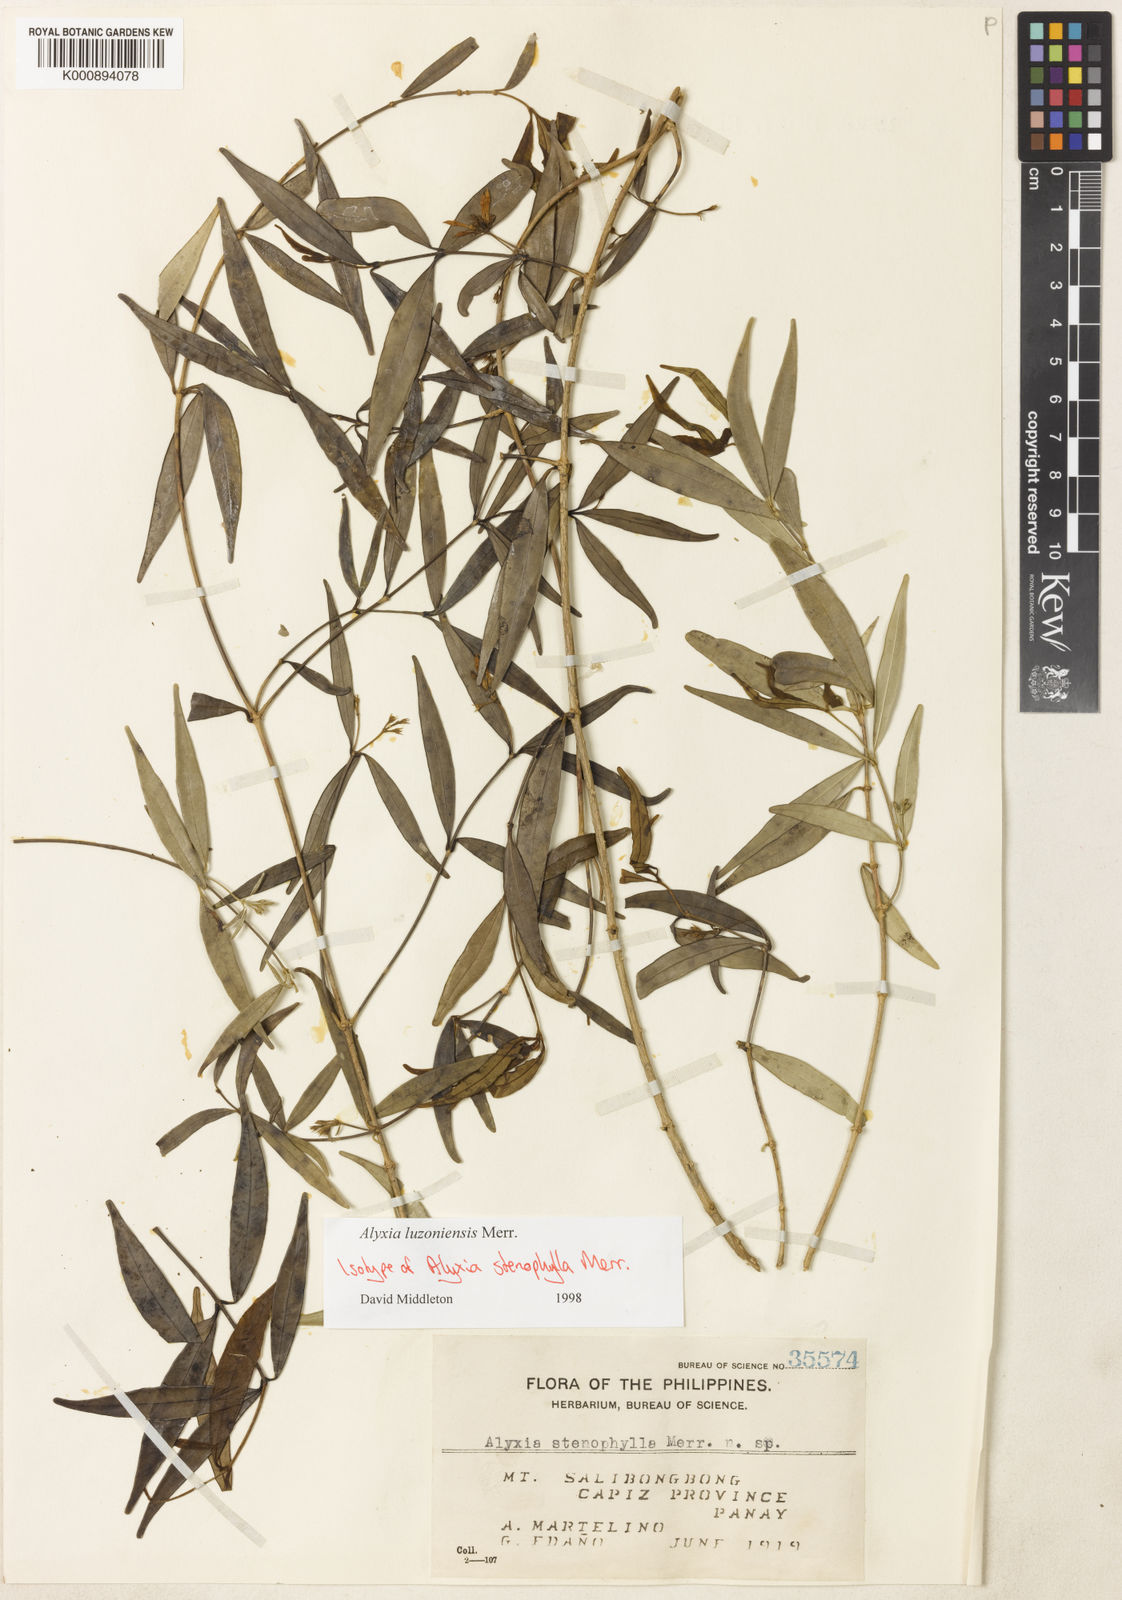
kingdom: Plantae
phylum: Tracheophyta
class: Magnoliopsida
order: Gentianales
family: Apocynaceae
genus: Alyxia
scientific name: Alyxia luzoniensis
